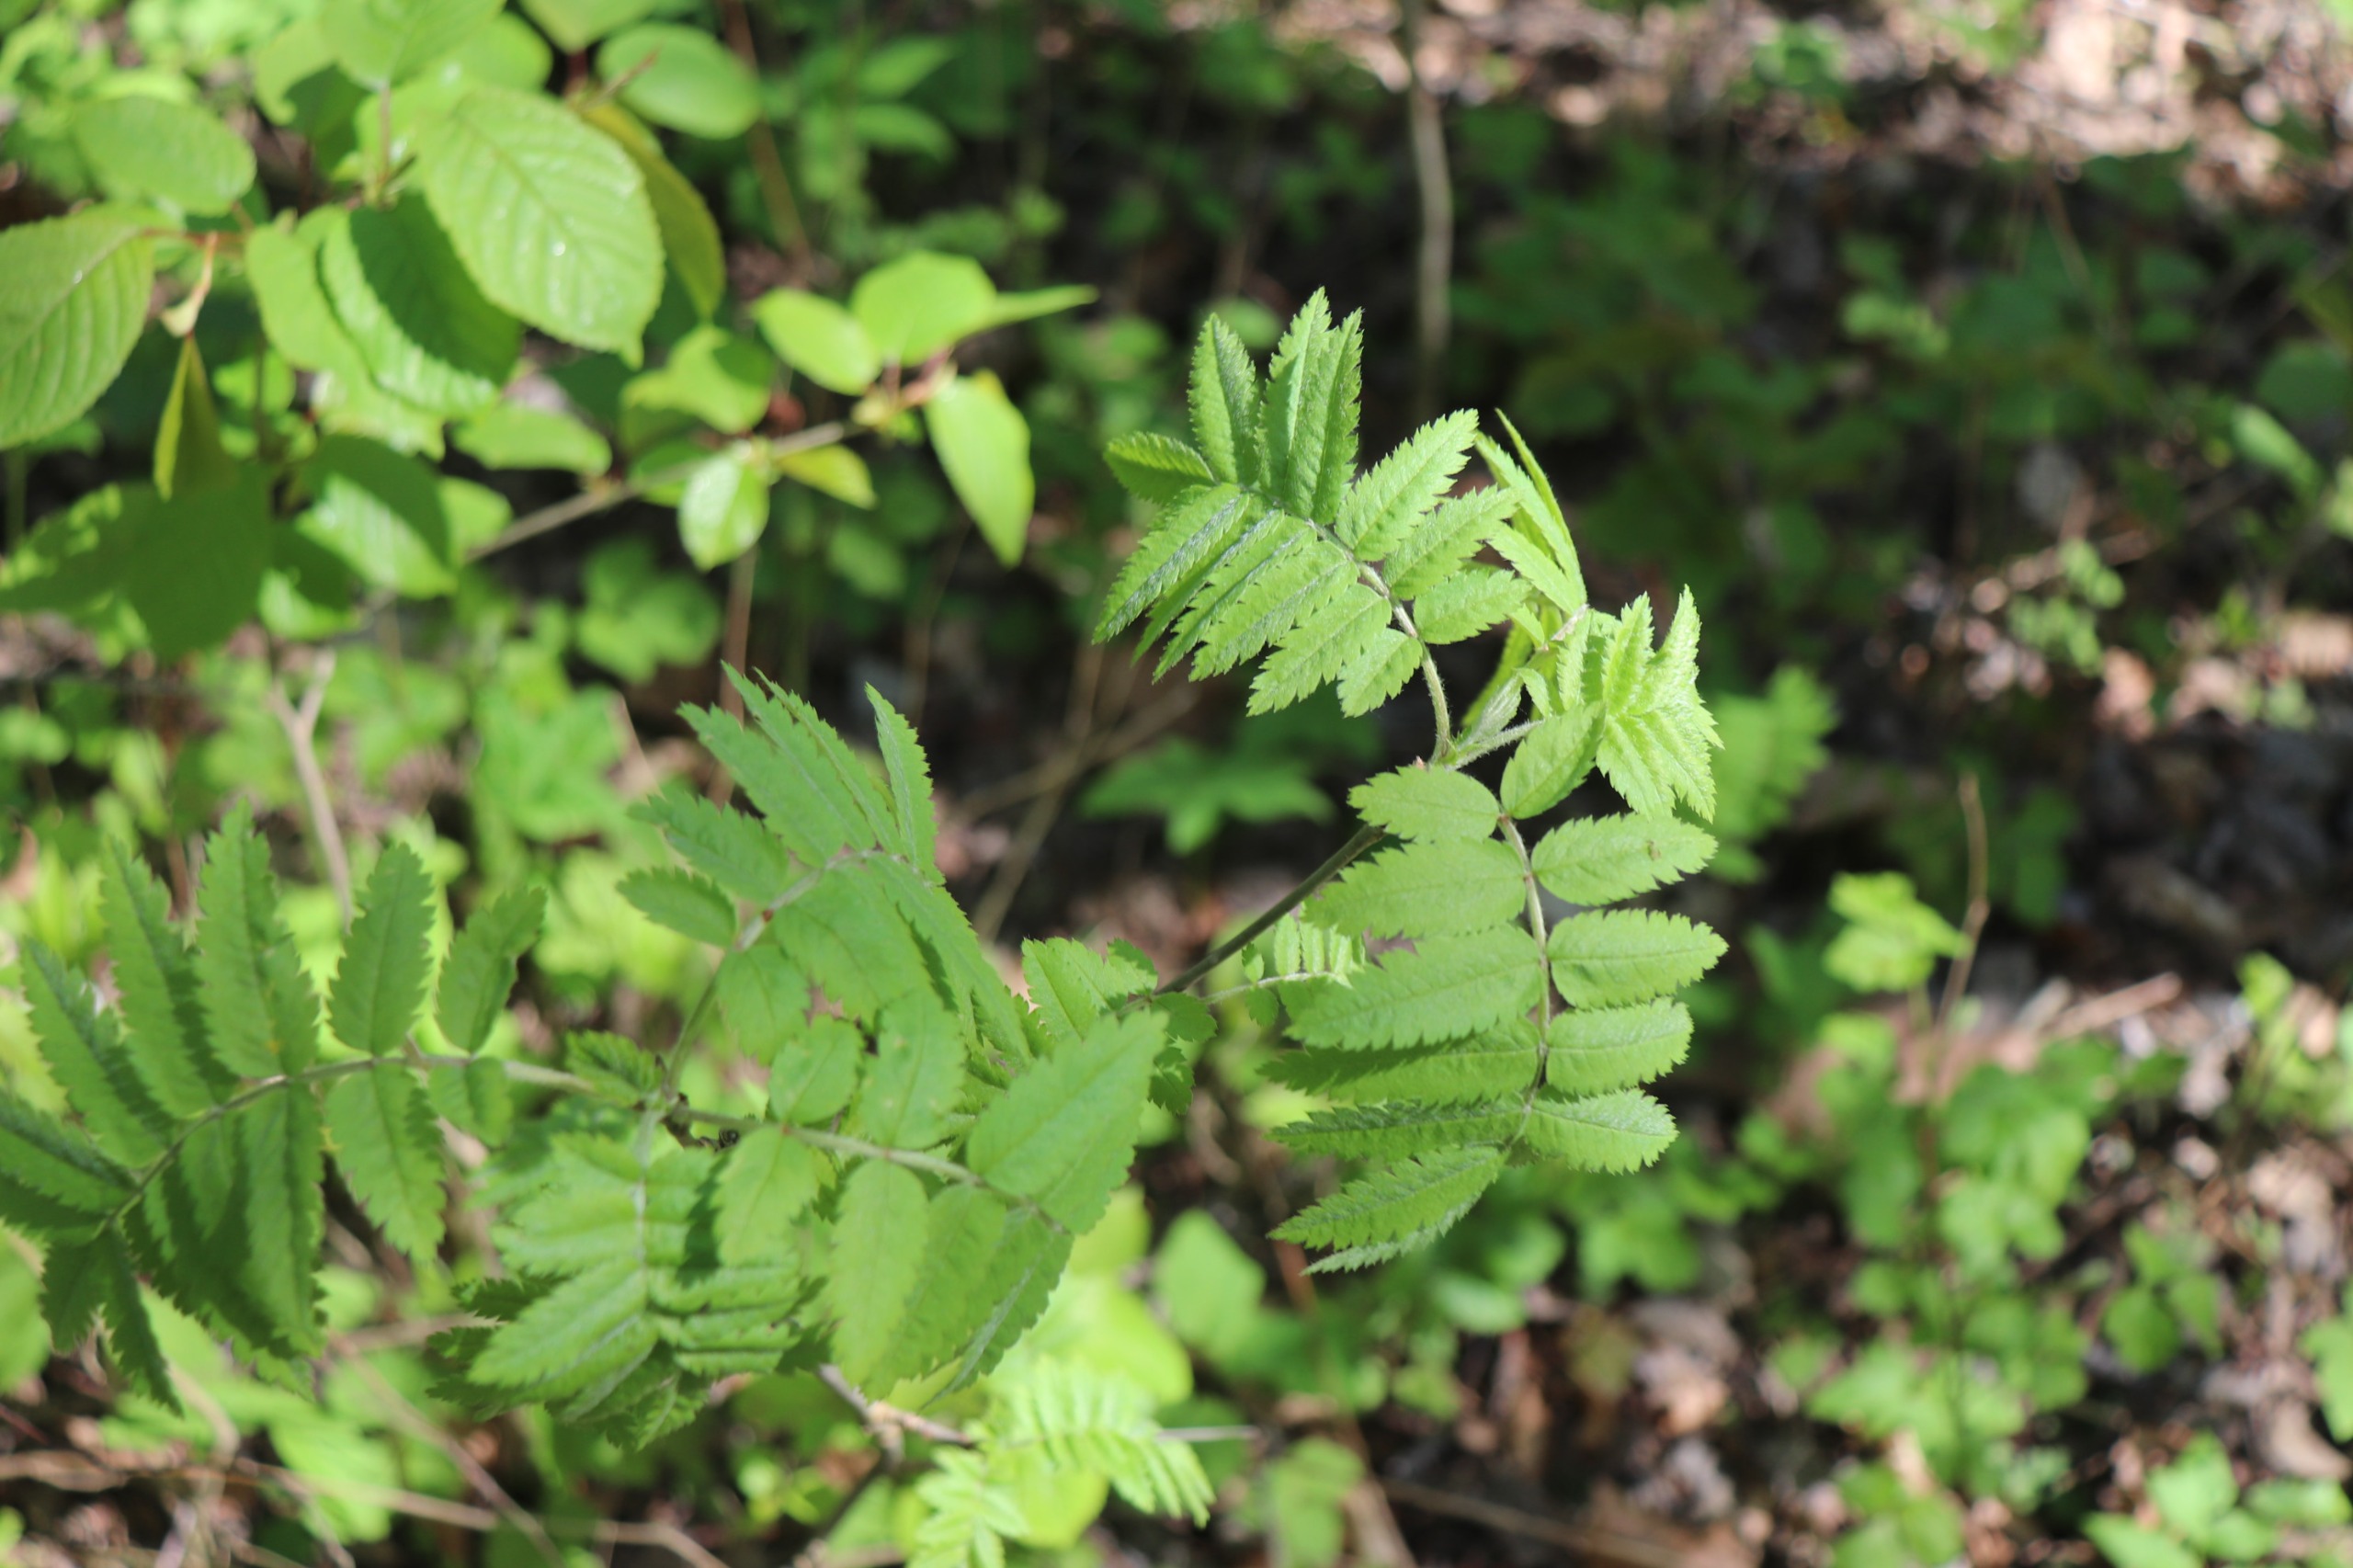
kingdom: Plantae
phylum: Tracheophyta
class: Magnoliopsida
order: Rosales
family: Rosaceae
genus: Sorbus
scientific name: Sorbus aucuparia
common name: Almindelig røn
